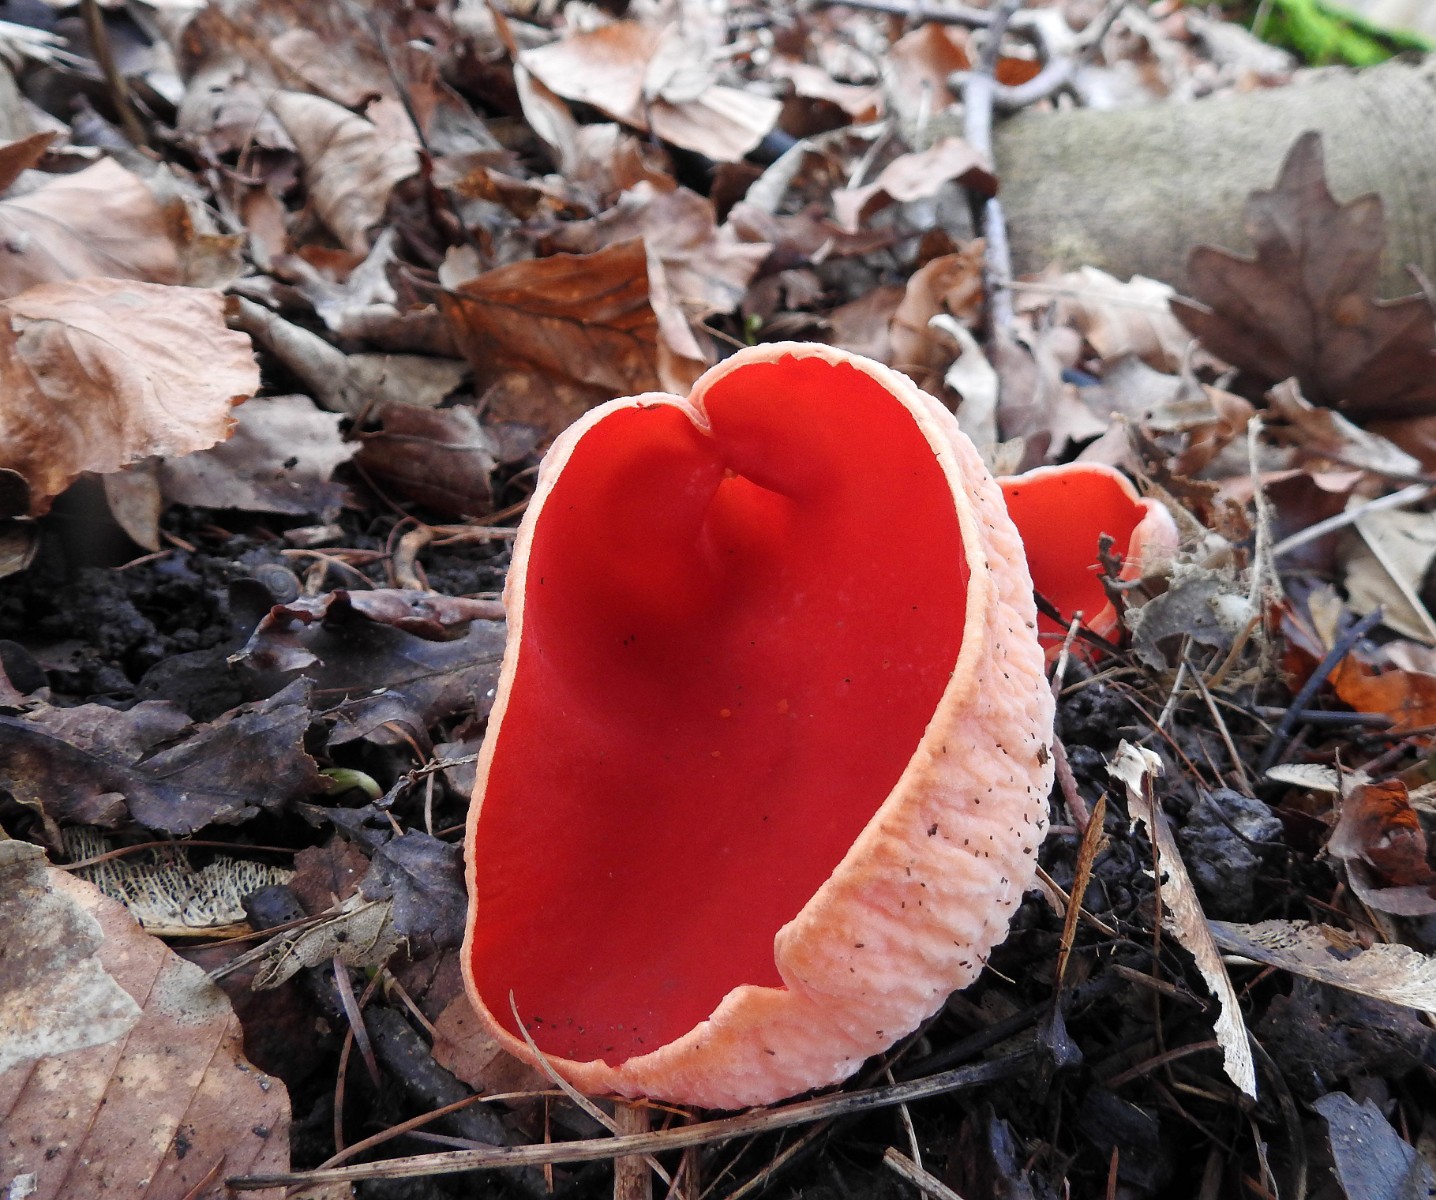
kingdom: Fungi
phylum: Ascomycota
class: Pezizomycetes
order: Pezizales
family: Sarcoscyphaceae
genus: Sarcoscypha
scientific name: Sarcoscypha
